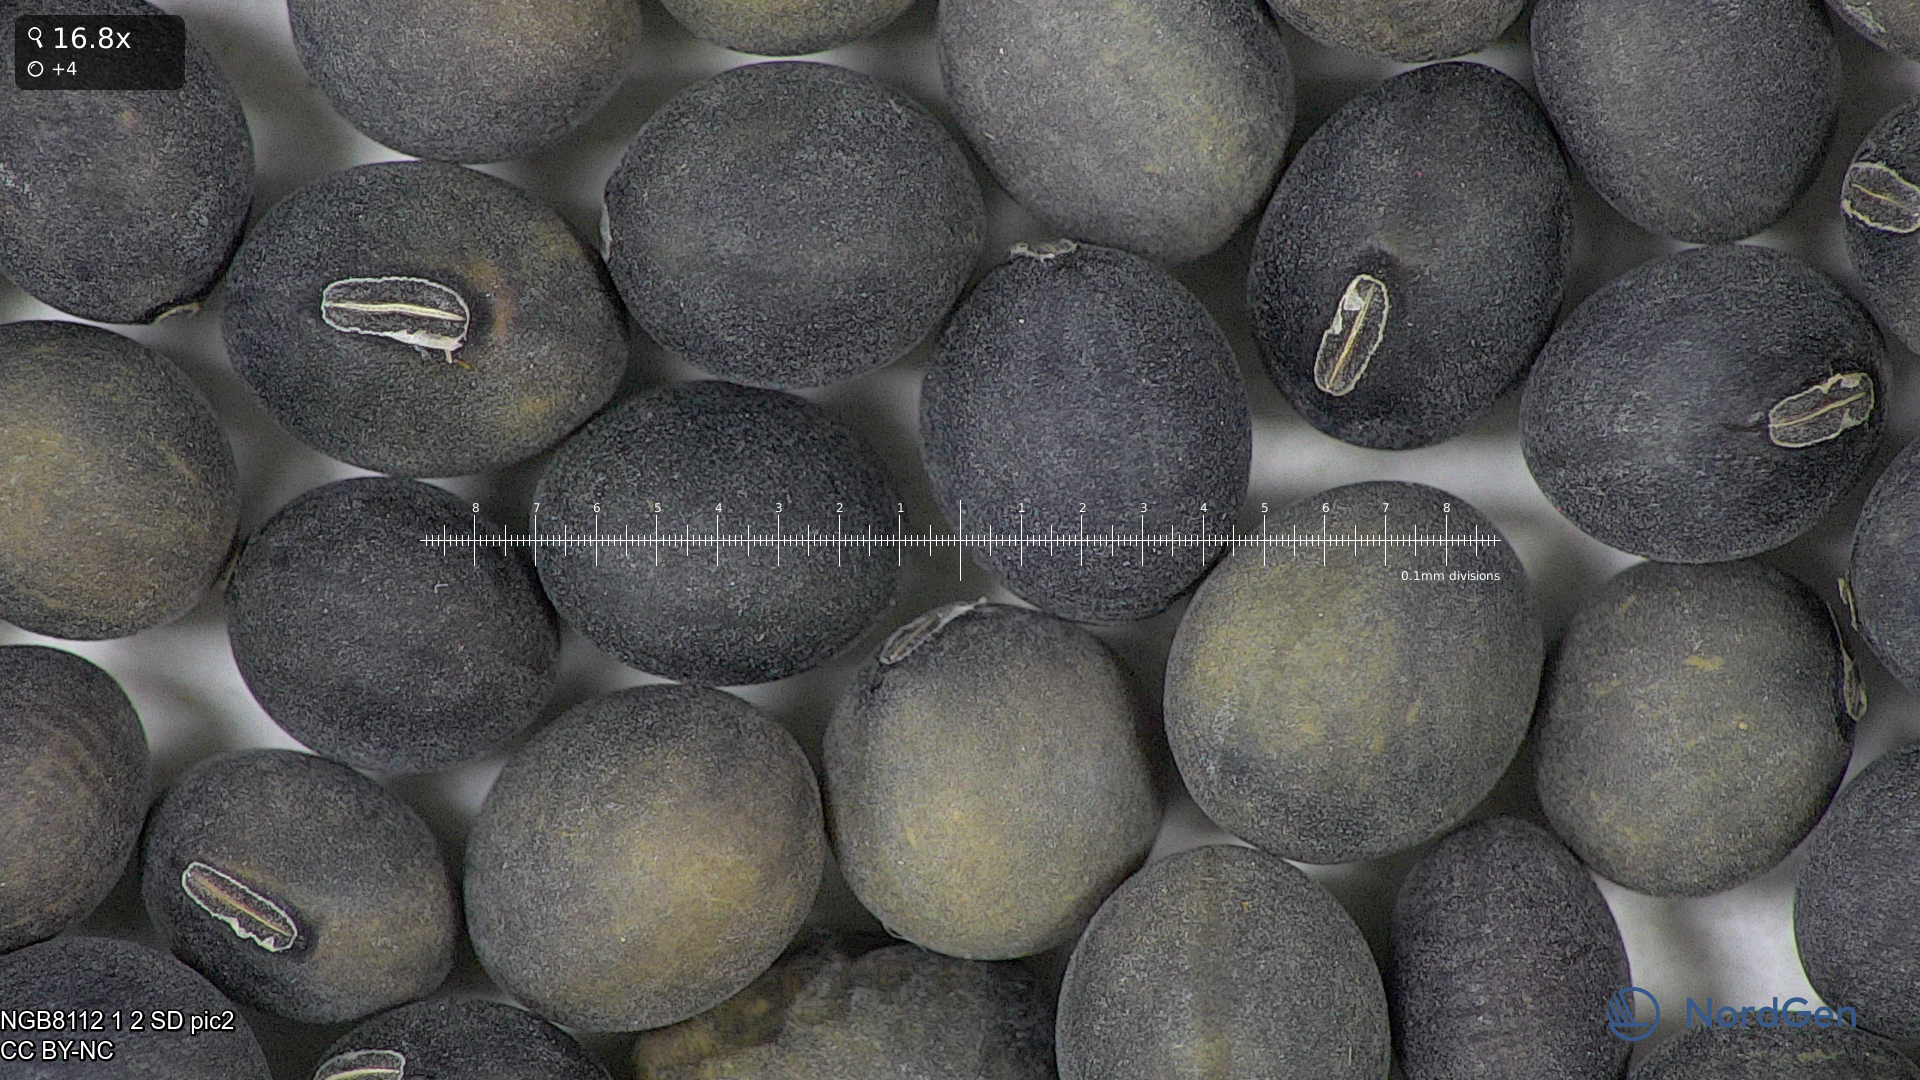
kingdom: Plantae
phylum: Tracheophyta
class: Magnoliopsida
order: Fabales
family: Fabaceae
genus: Glycine
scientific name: Glycine max
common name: Soya-bean
